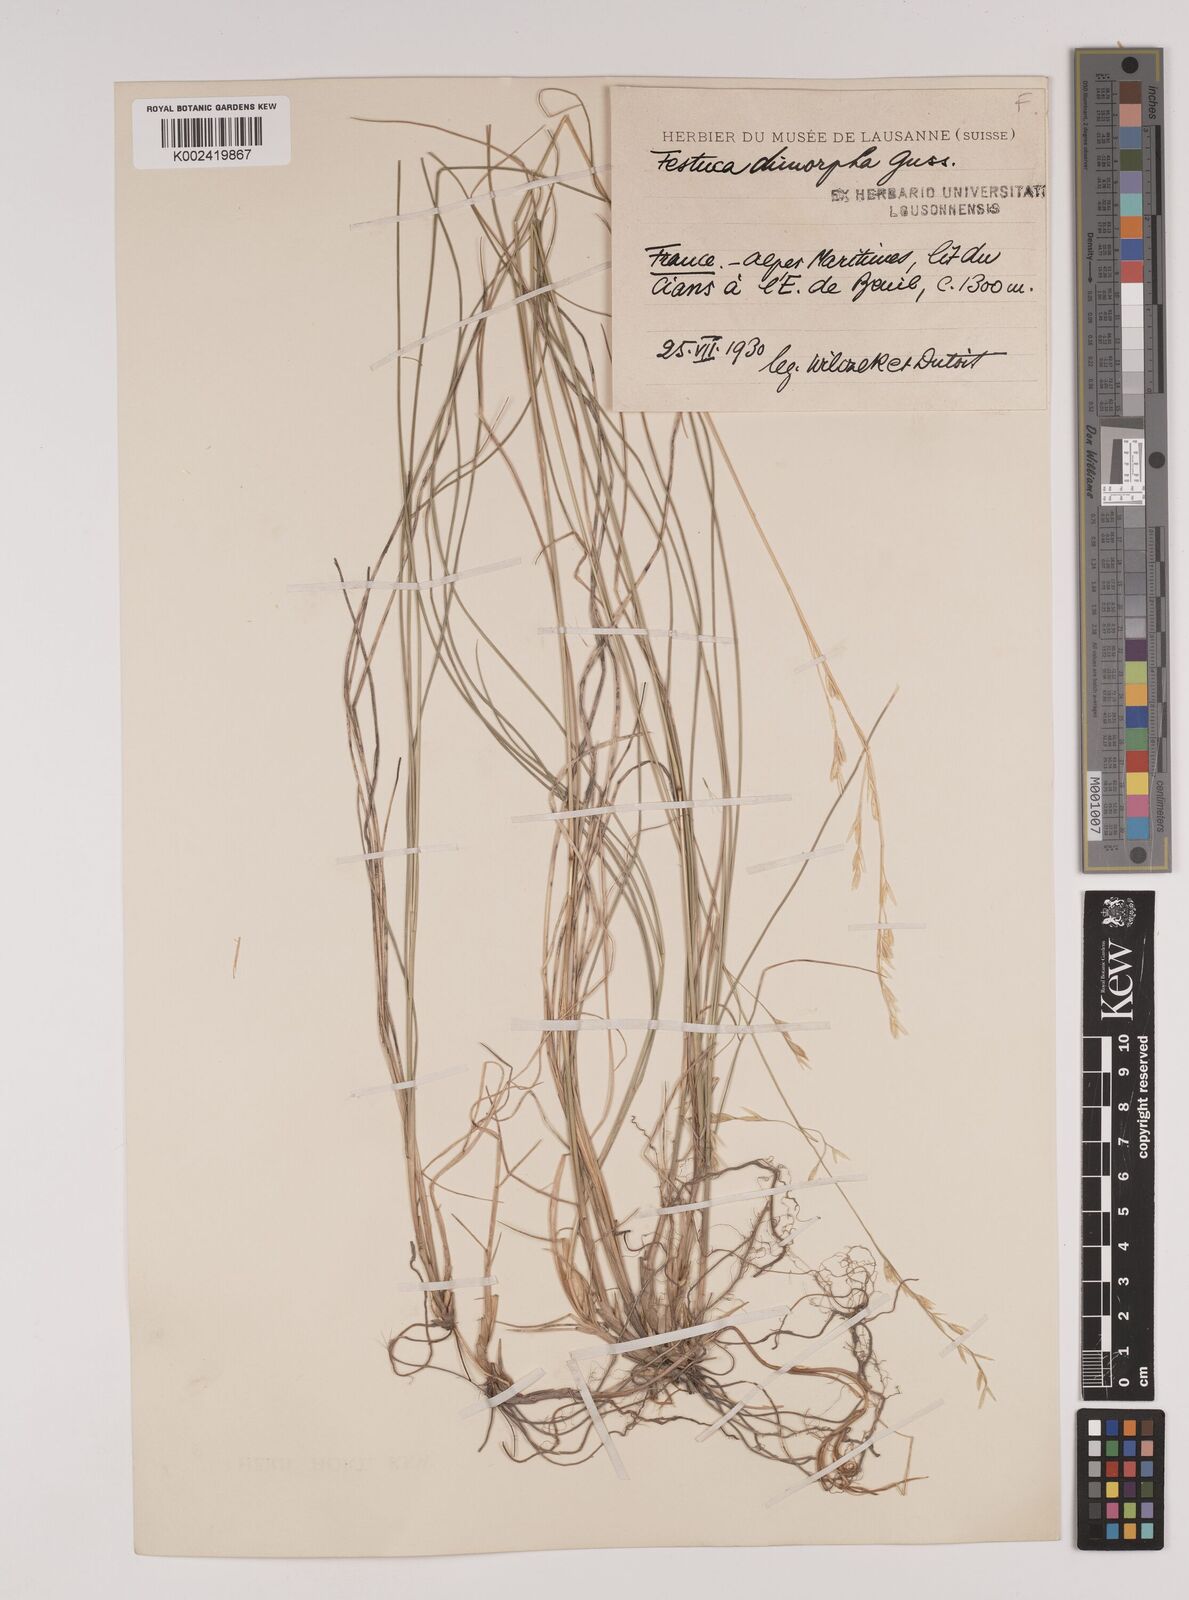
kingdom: Plantae
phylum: Tracheophyta
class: Liliopsida
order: Poales
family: Poaceae
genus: Festuca
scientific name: Festuca dimorpha
